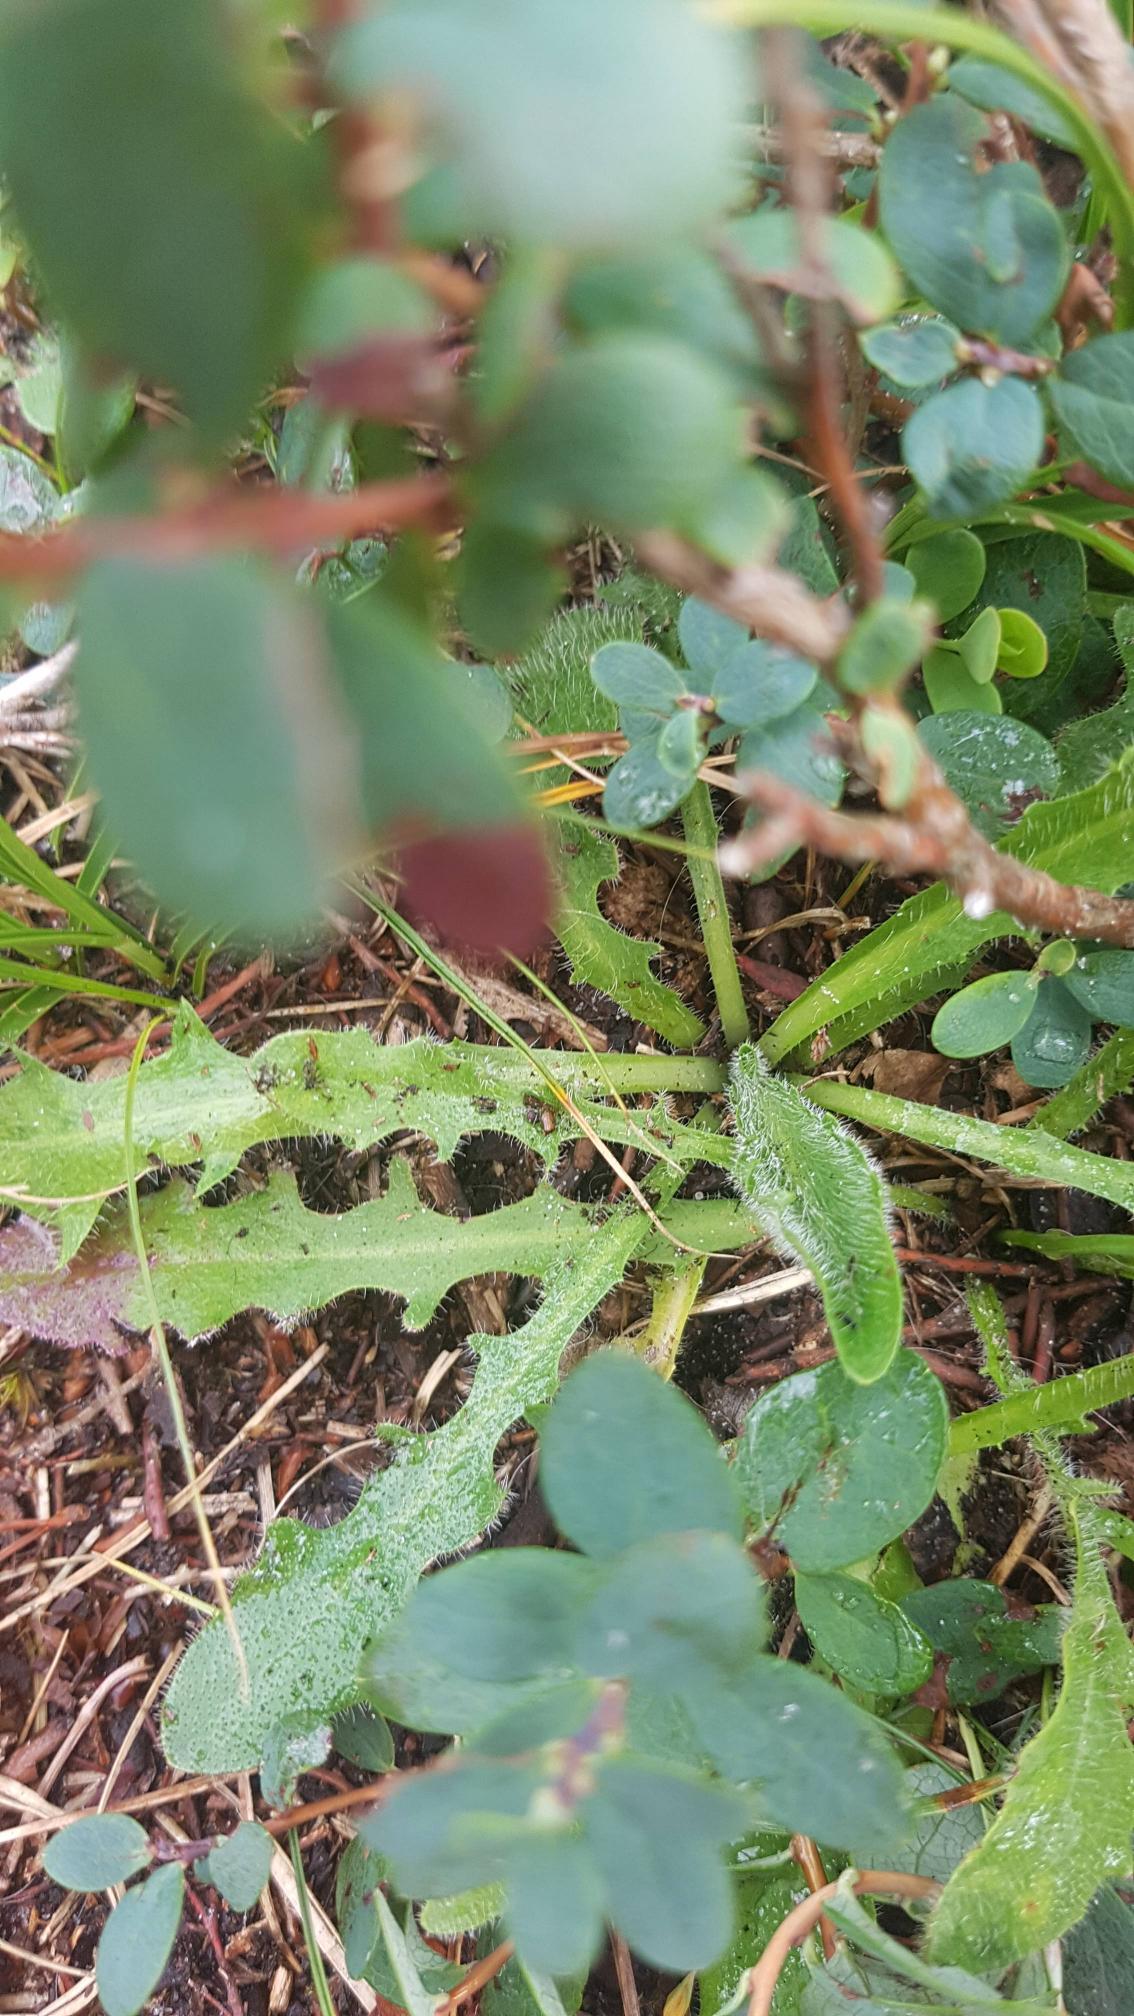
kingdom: Plantae
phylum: Tracheophyta
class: Magnoliopsida
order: Asterales
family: Asteraceae
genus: Hypochaeris
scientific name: Hypochaeris radicata
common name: Almindelig kongepen
